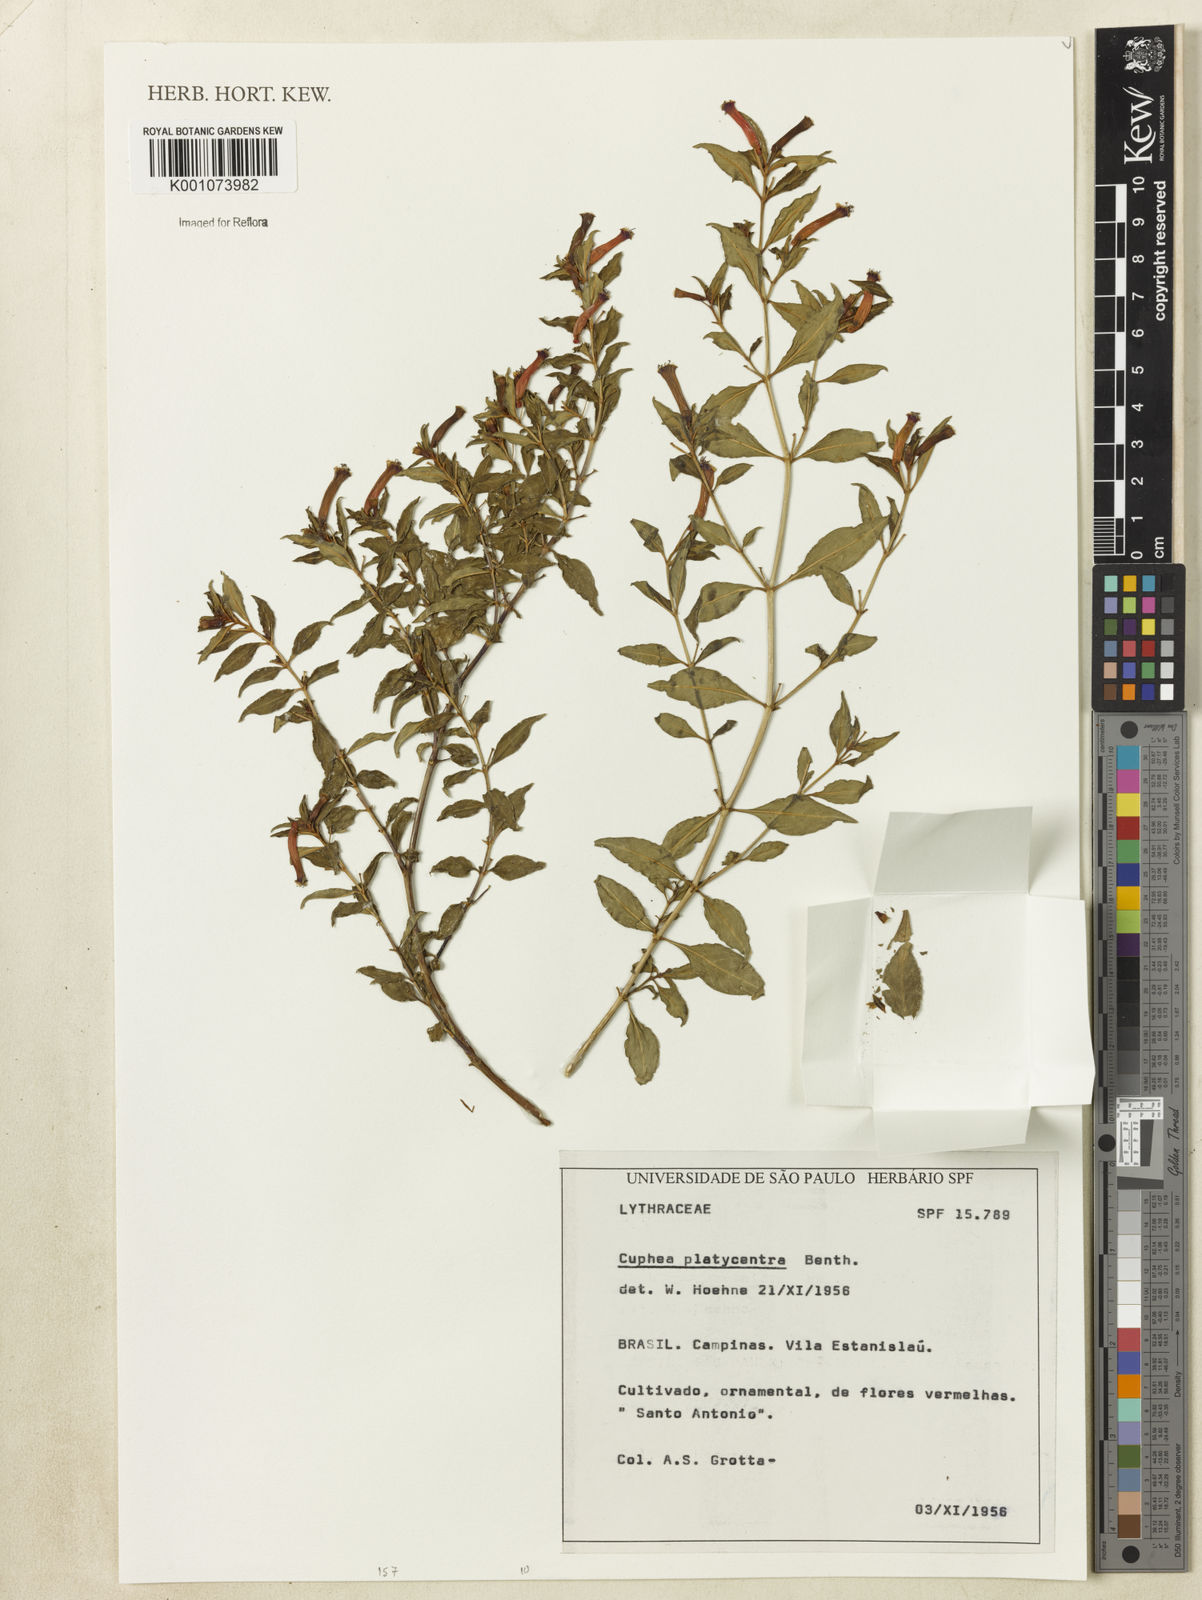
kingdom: Plantae
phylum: Tracheophyta
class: Magnoliopsida
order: Myrtales
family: Lythraceae
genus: Cuphea
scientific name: Cuphea platycentra
